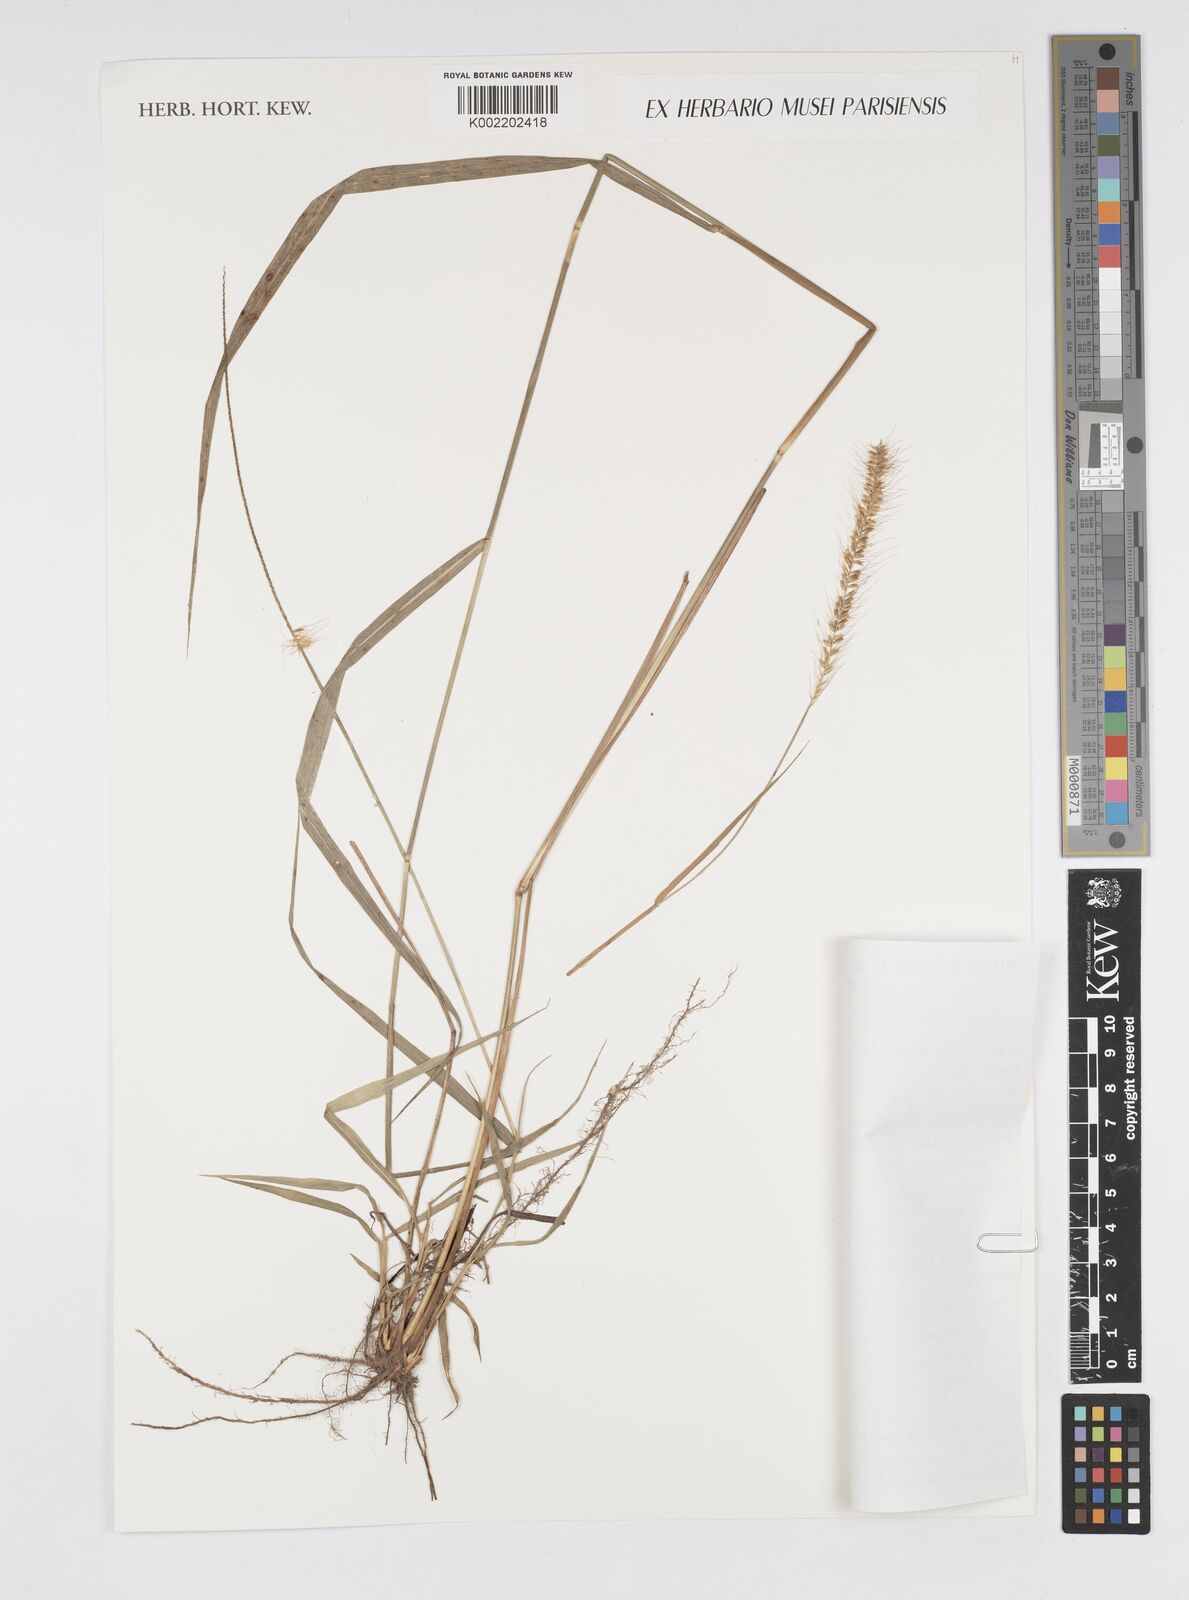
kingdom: Plantae
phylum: Tracheophyta
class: Liliopsida
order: Poales
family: Poaceae
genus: Setaria
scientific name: Setaria parviflora
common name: Knotroot bristle-grass
